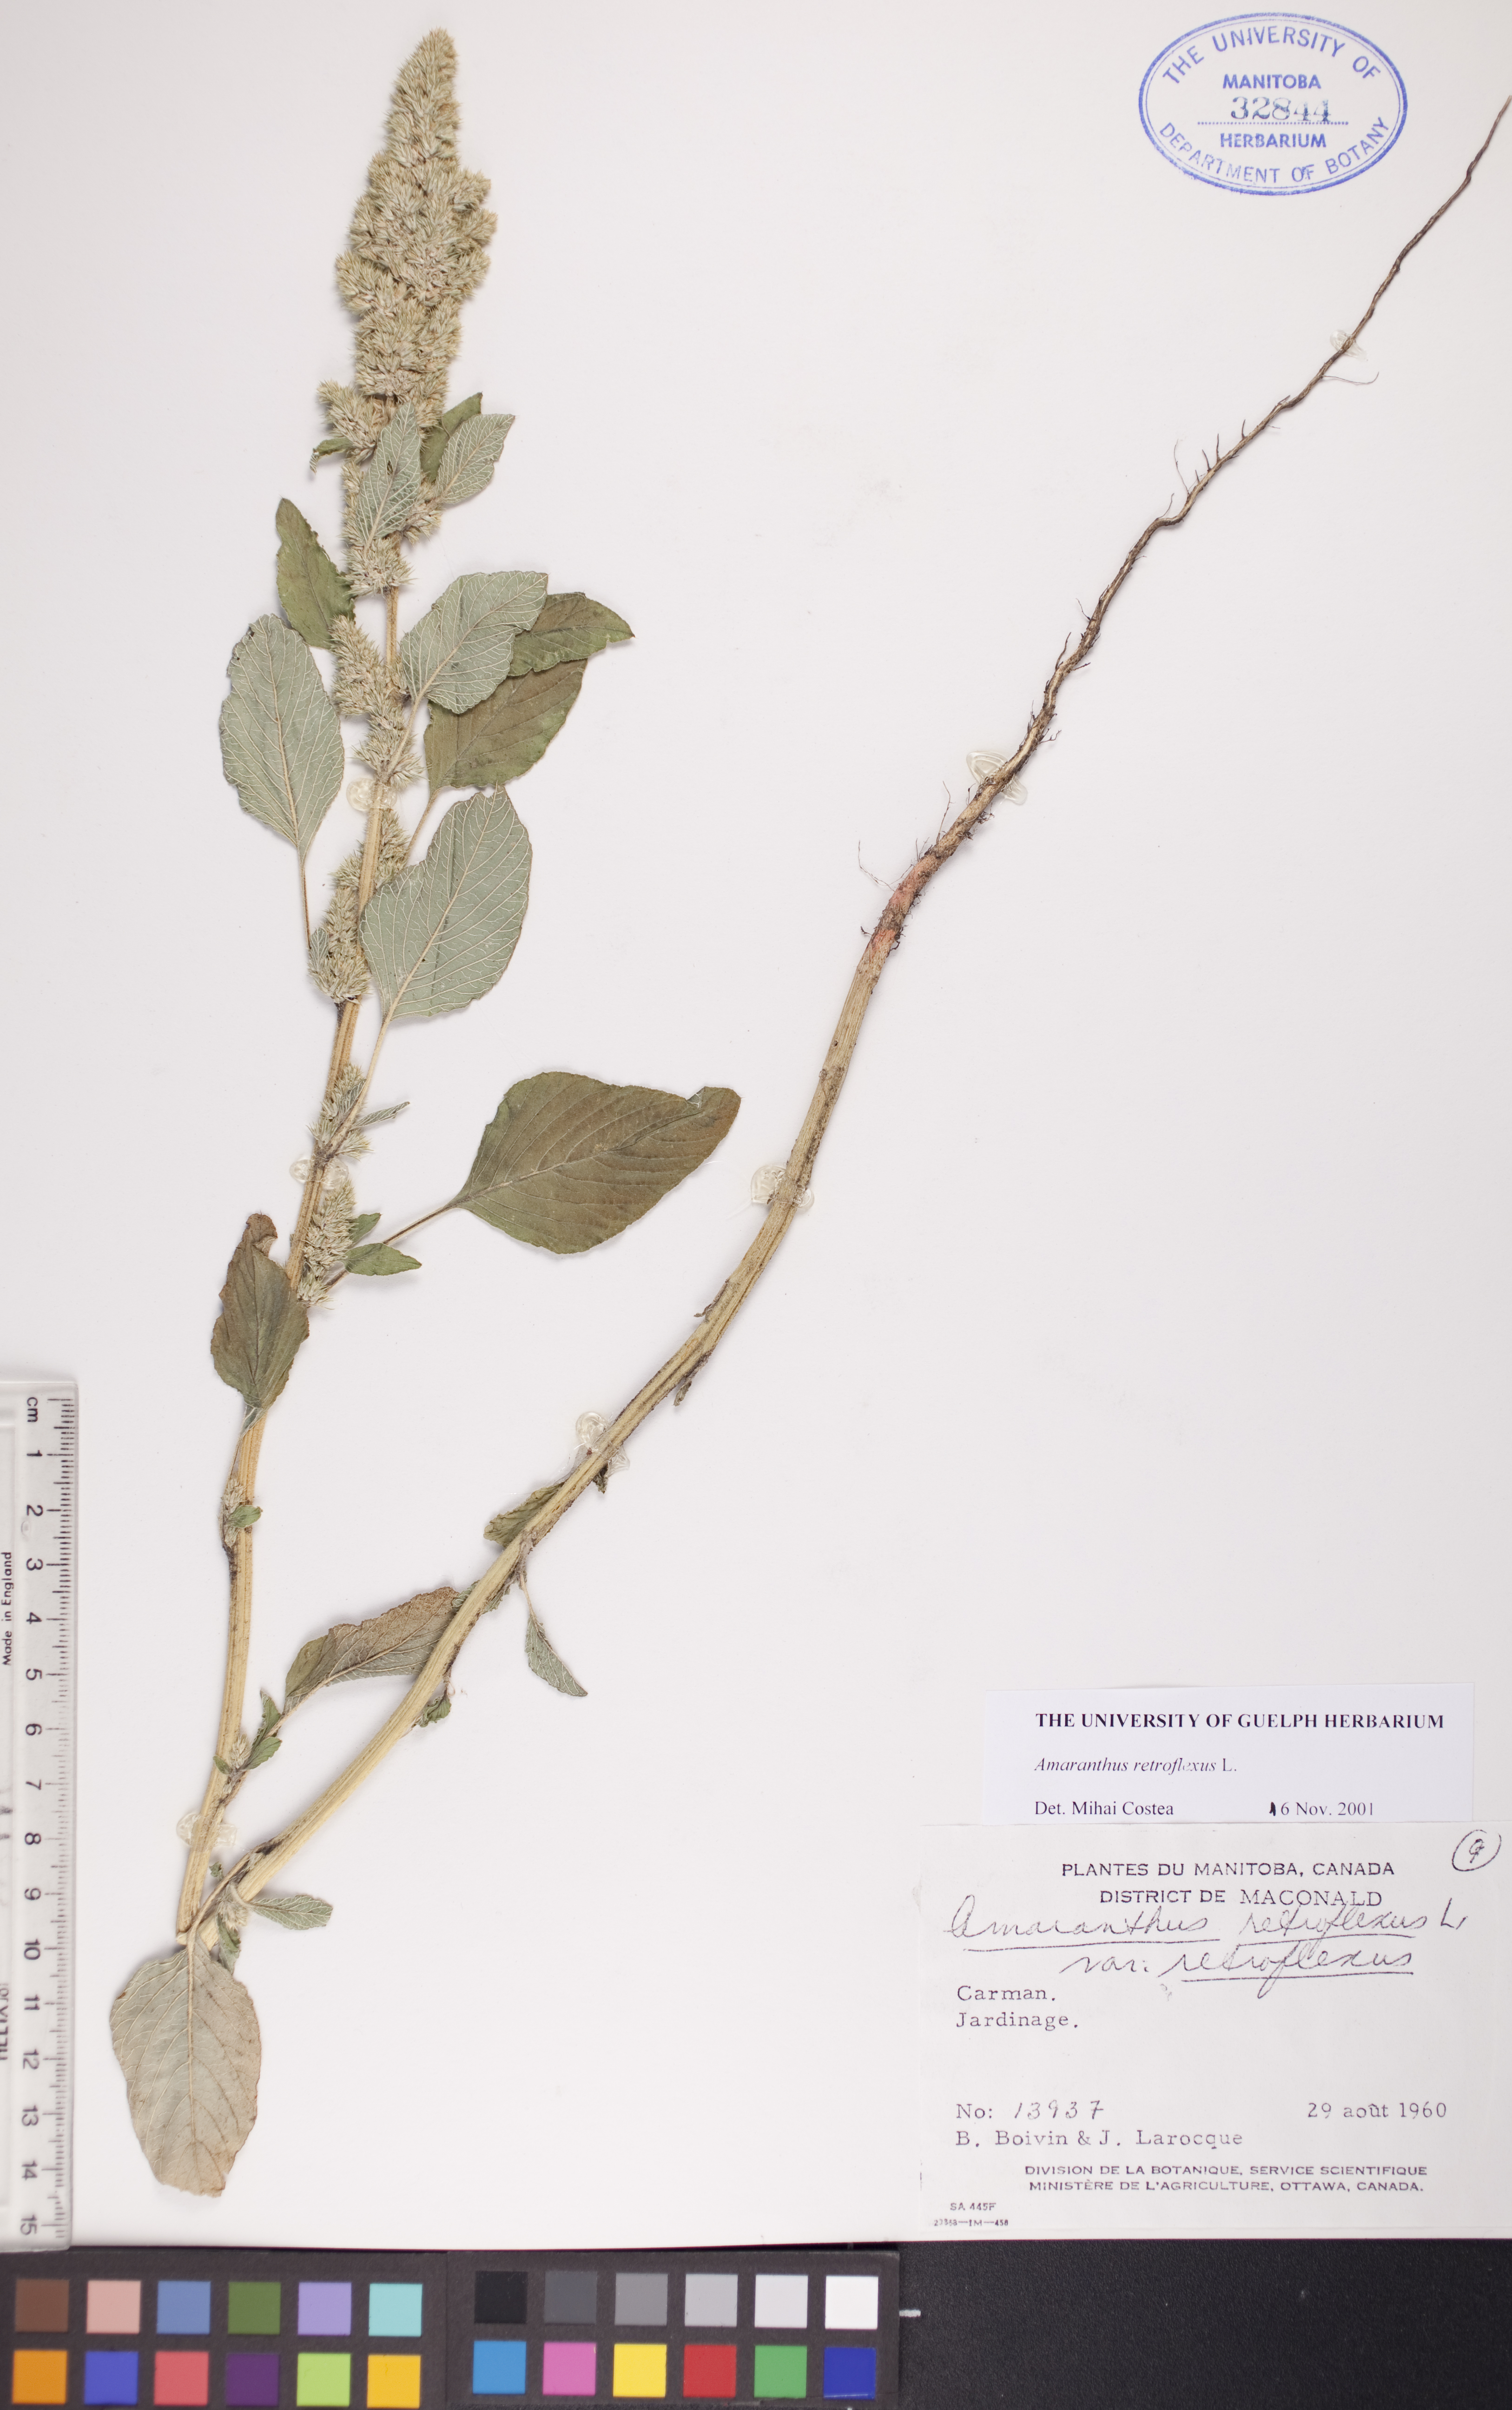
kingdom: Plantae
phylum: Tracheophyta
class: Magnoliopsida
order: Caryophyllales
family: Amaranthaceae
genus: Amaranthus
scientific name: Amaranthus retroflexus
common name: Redroot amaranth
